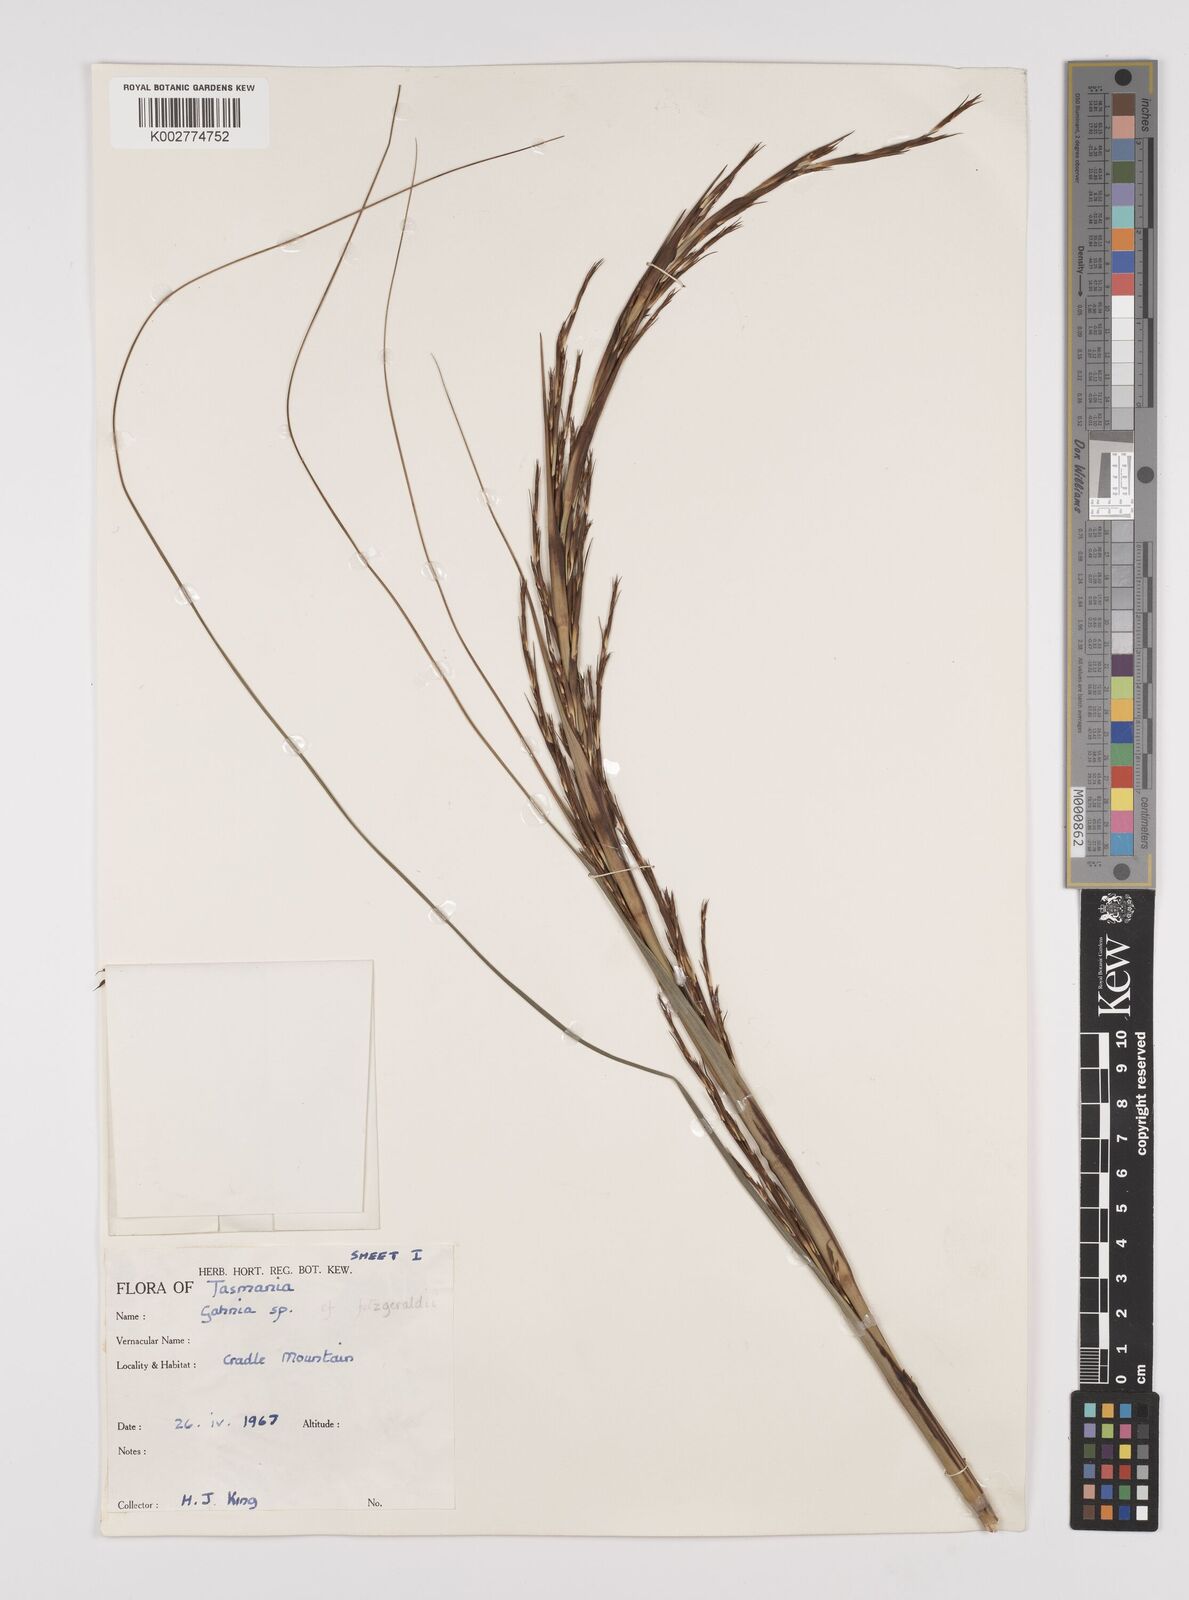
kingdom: Plantae
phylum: Tracheophyta
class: Liliopsida
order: Poales
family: Cyperaceae
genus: Gahnia
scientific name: Gahnia
